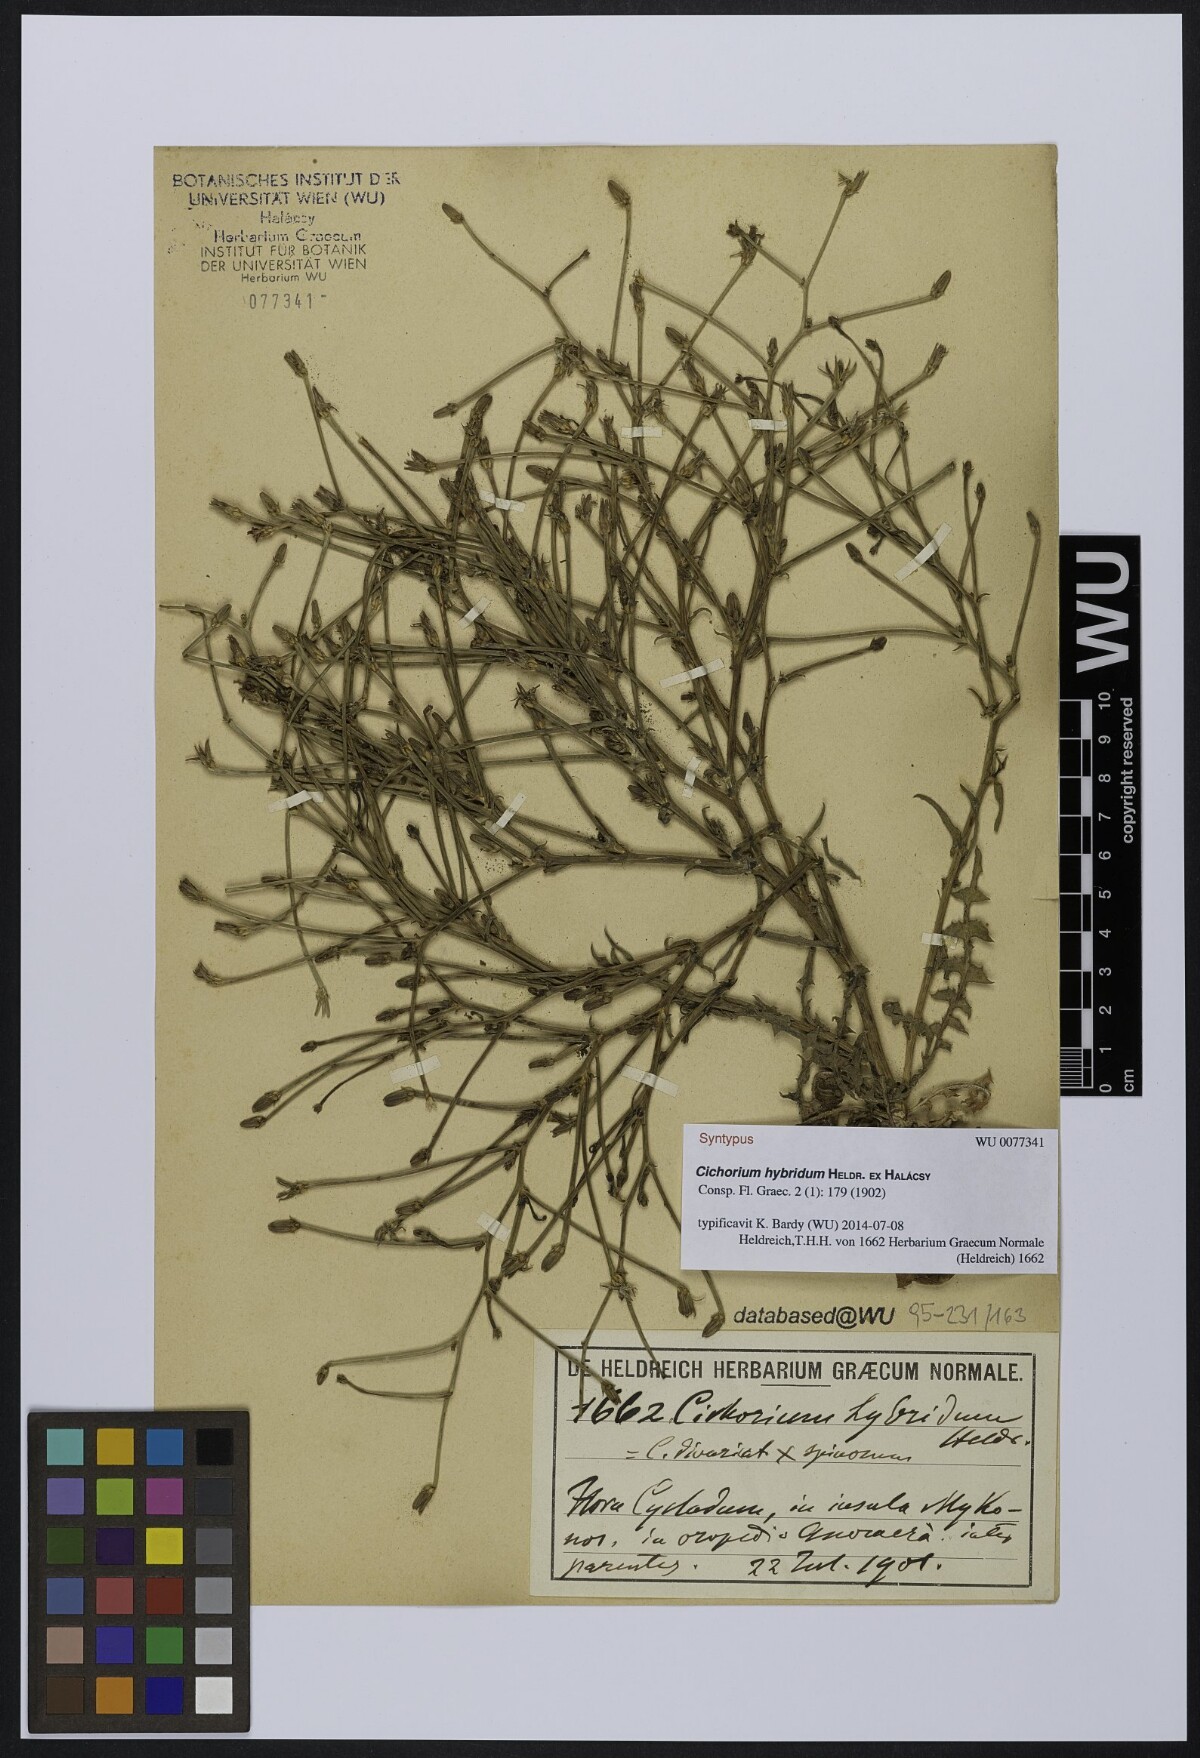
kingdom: Plantae
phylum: Tracheophyta
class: Magnoliopsida
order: Asterales
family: Asteraceae
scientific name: Asteraceae
